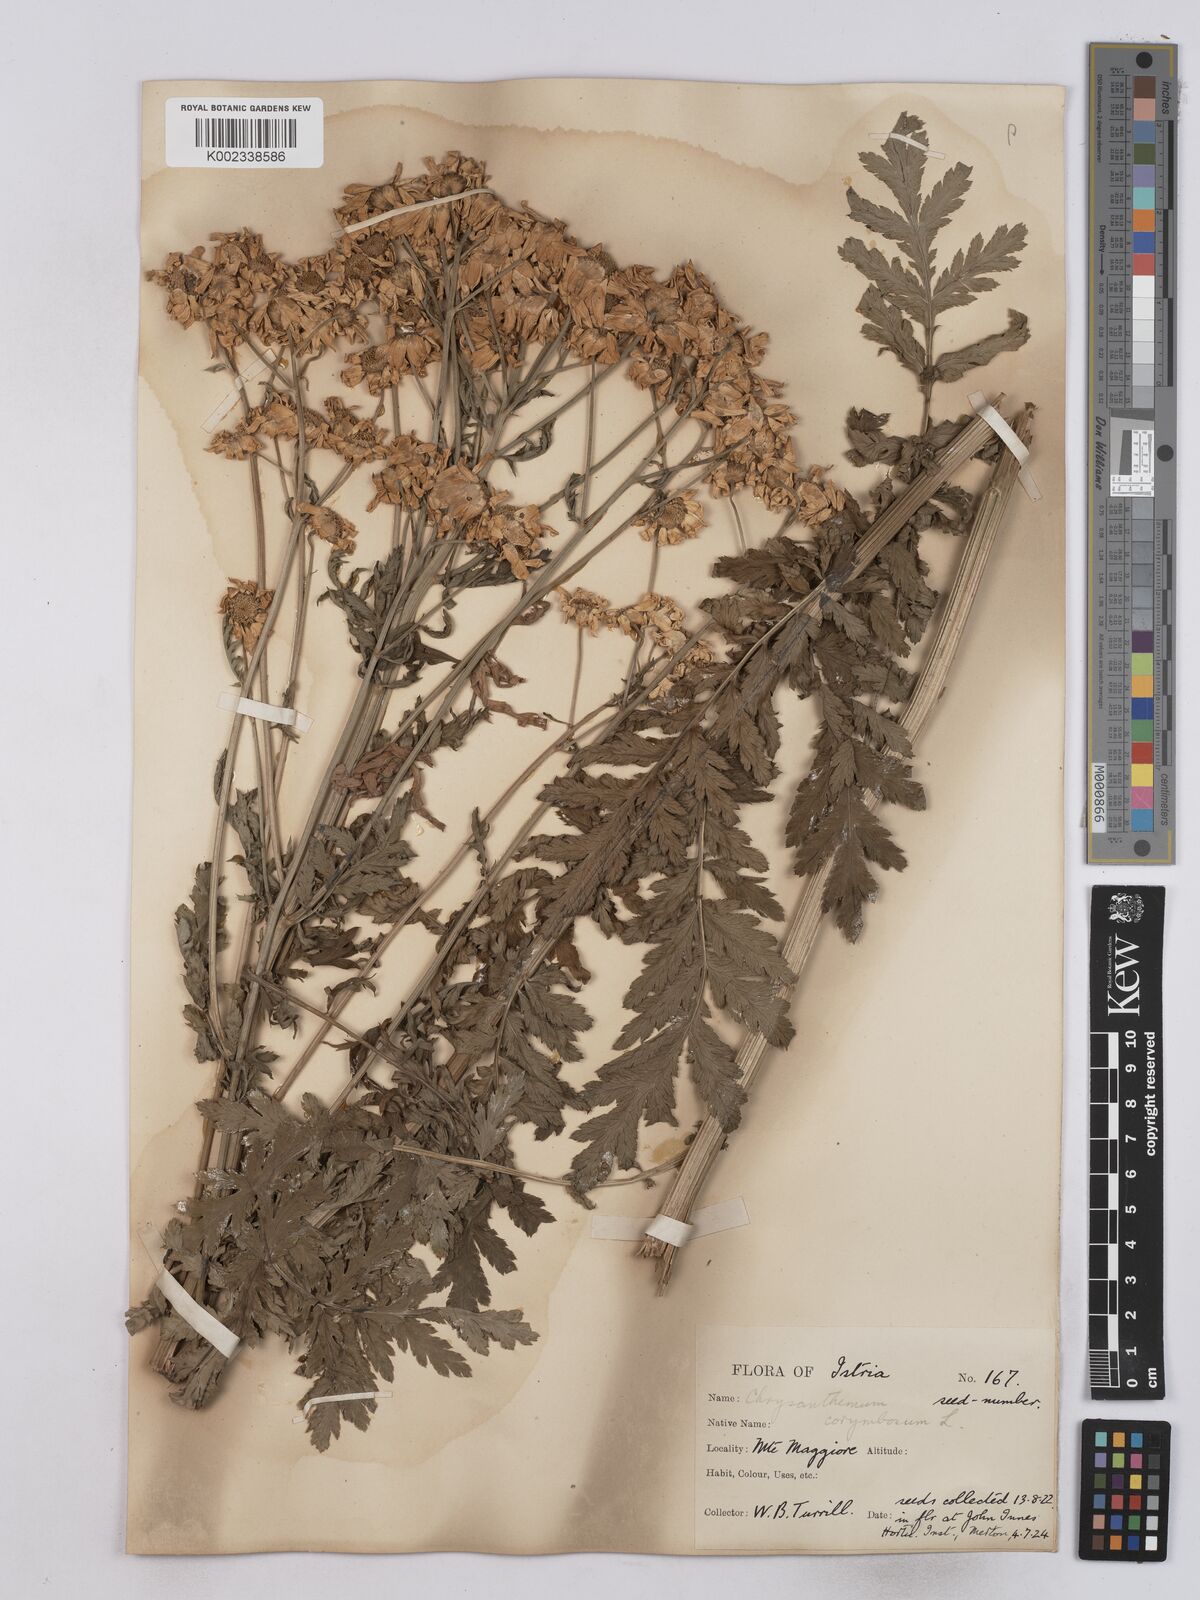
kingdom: Plantae
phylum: Tracheophyta
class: Magnoliopsida
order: Asterales
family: Asteraceae
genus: Tanacetum
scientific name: Tanacetum corymbosum
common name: Scentless feverfew
